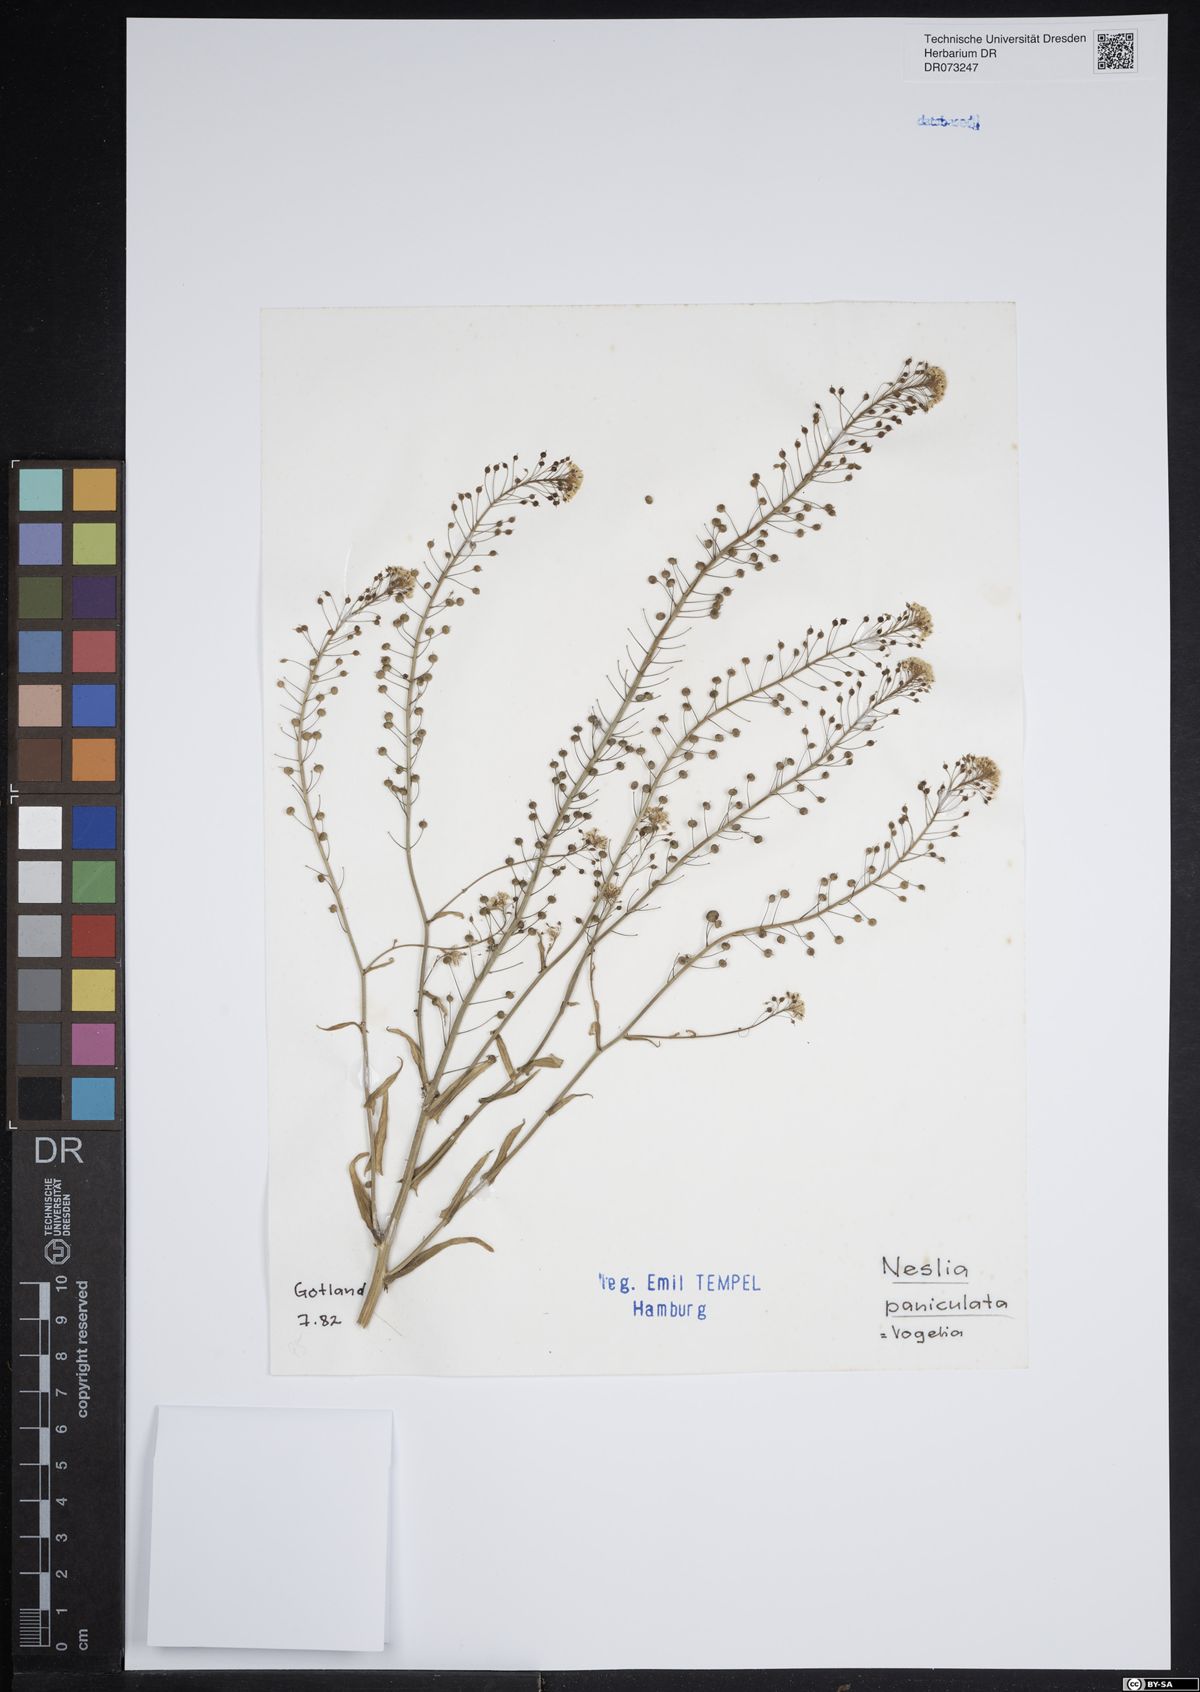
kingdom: Plantae
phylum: Tracheophyta
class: Magnoliopsida
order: Brassicales
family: Brassicaceae
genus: Neslia
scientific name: Neslia paniculata
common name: Ball mustard
